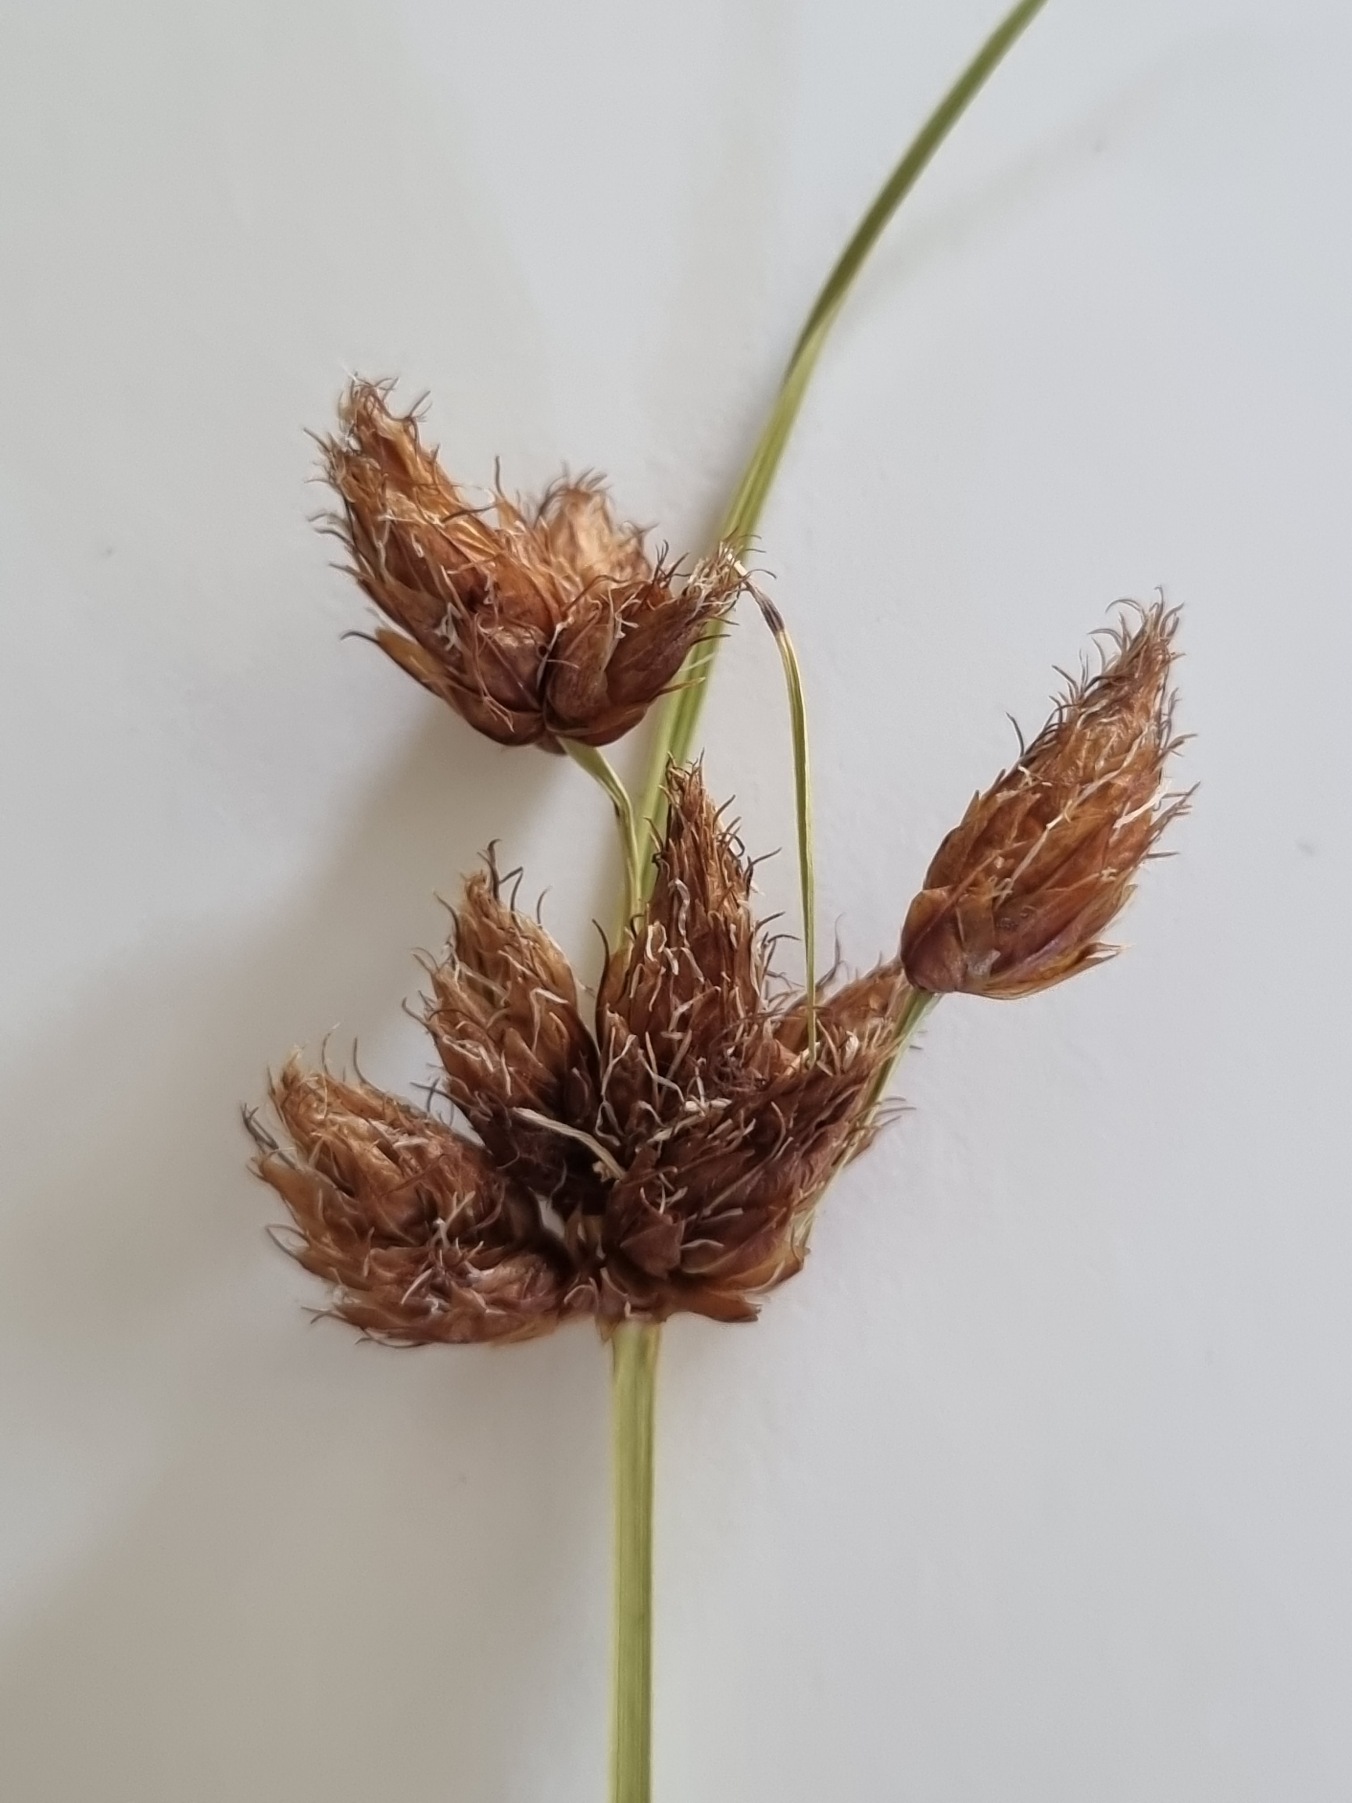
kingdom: Plantae
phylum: Tracheophyta
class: Liliopsida
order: Poales
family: Cyperaceae
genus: Bolboschoenus
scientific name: Bolboschoenus maritimus
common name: Strand-kogleaks
